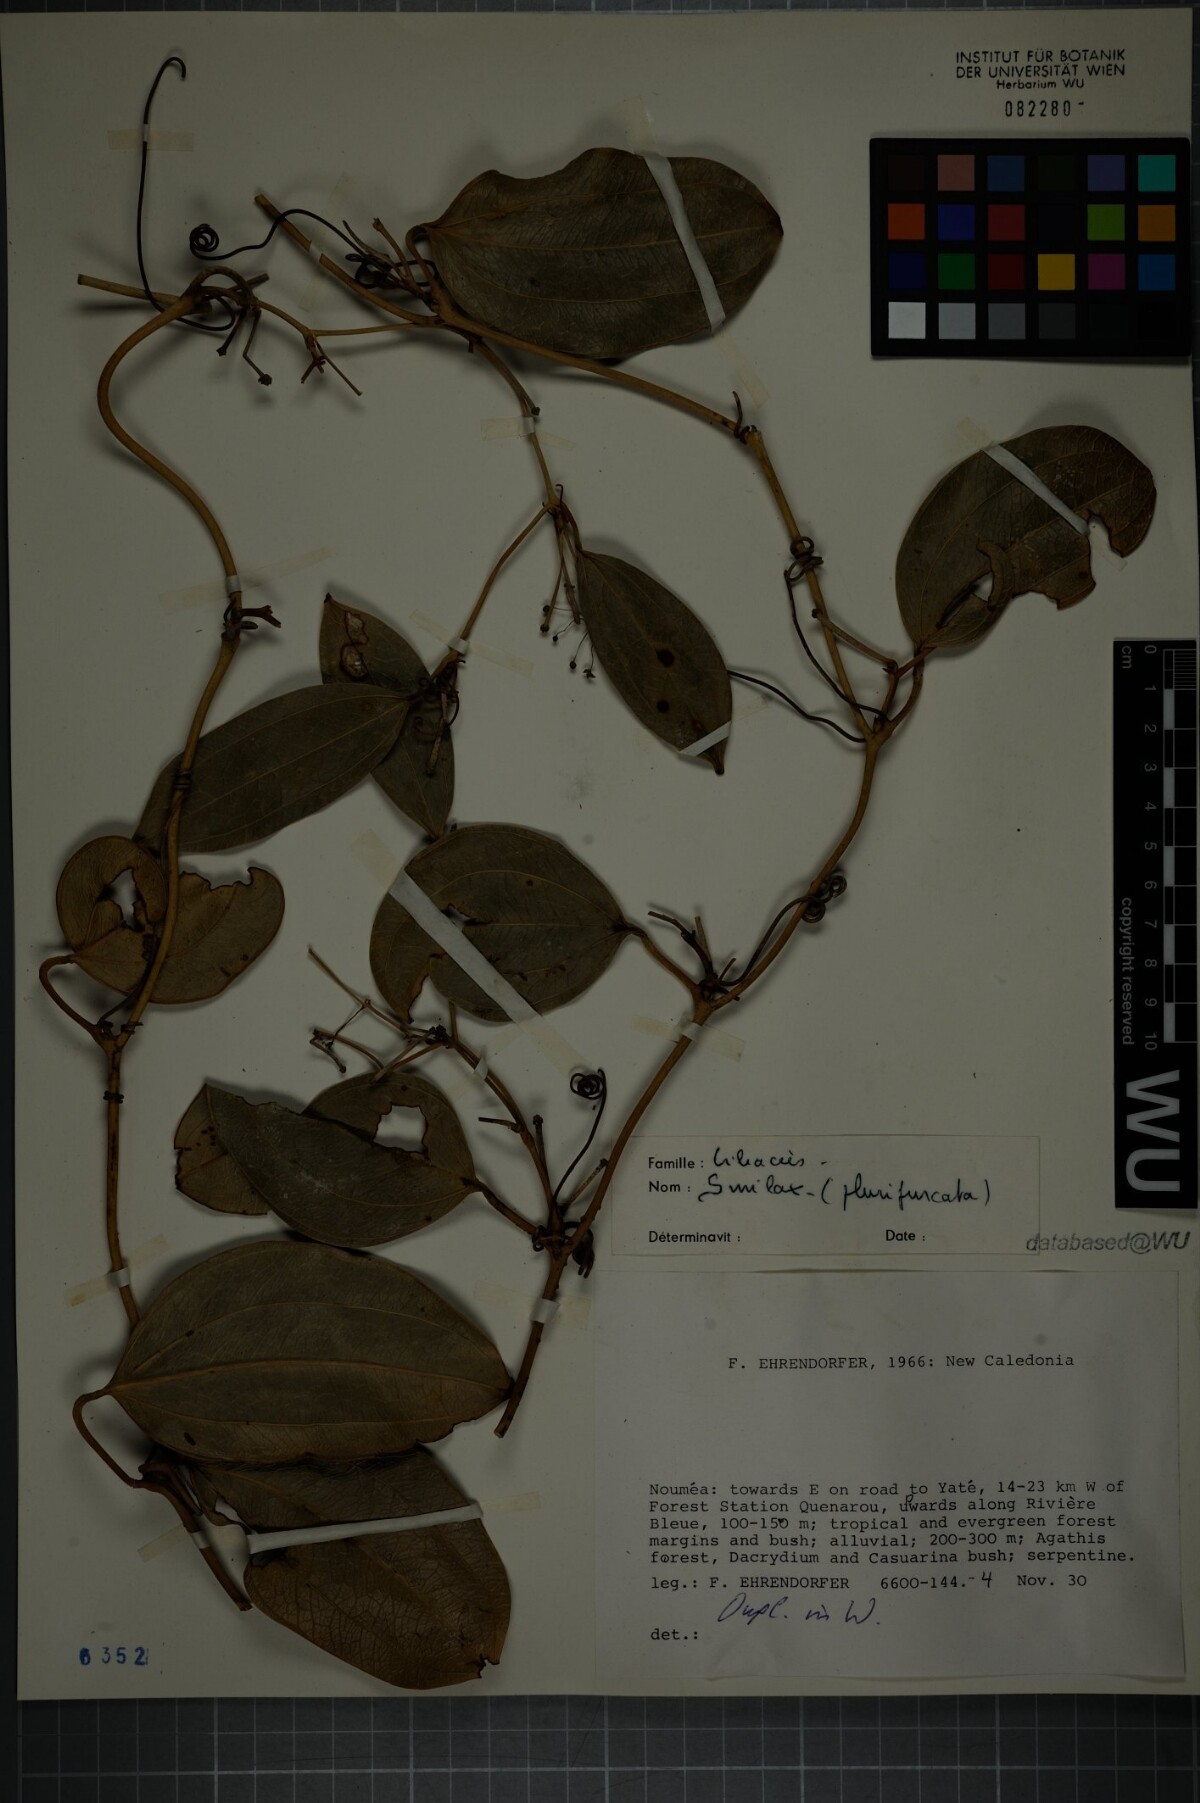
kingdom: Plantae
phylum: Tracheophyta
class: Liliopsida
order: Liliales
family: Smilacaceae
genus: Smilax
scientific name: Smilax plurifurcata
